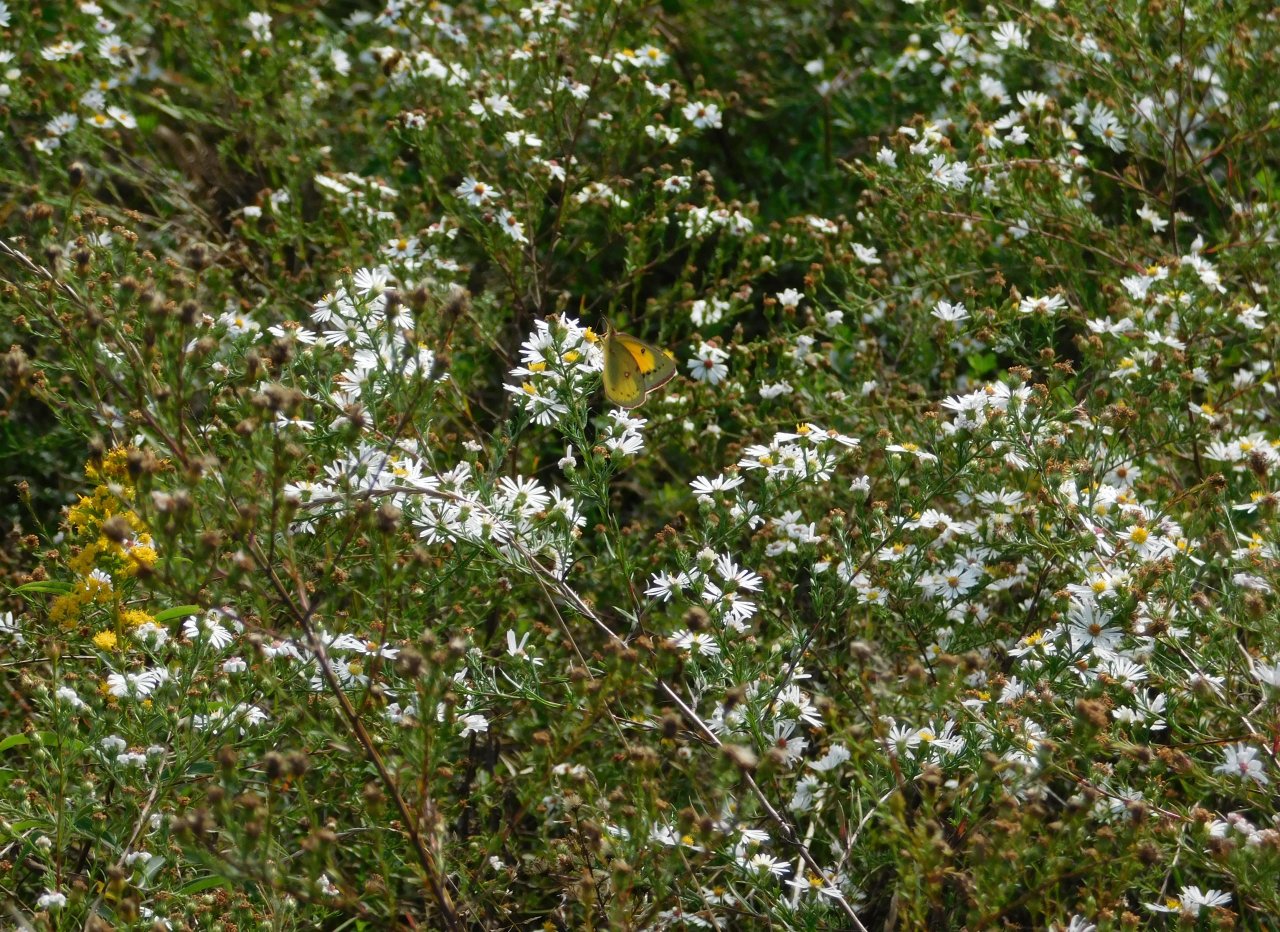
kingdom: Animalia
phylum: Arthropoda
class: Insecta
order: Lepidoptera
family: Pieridae
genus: Colias
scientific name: Colias eurytheme
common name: Orange Sulphur
